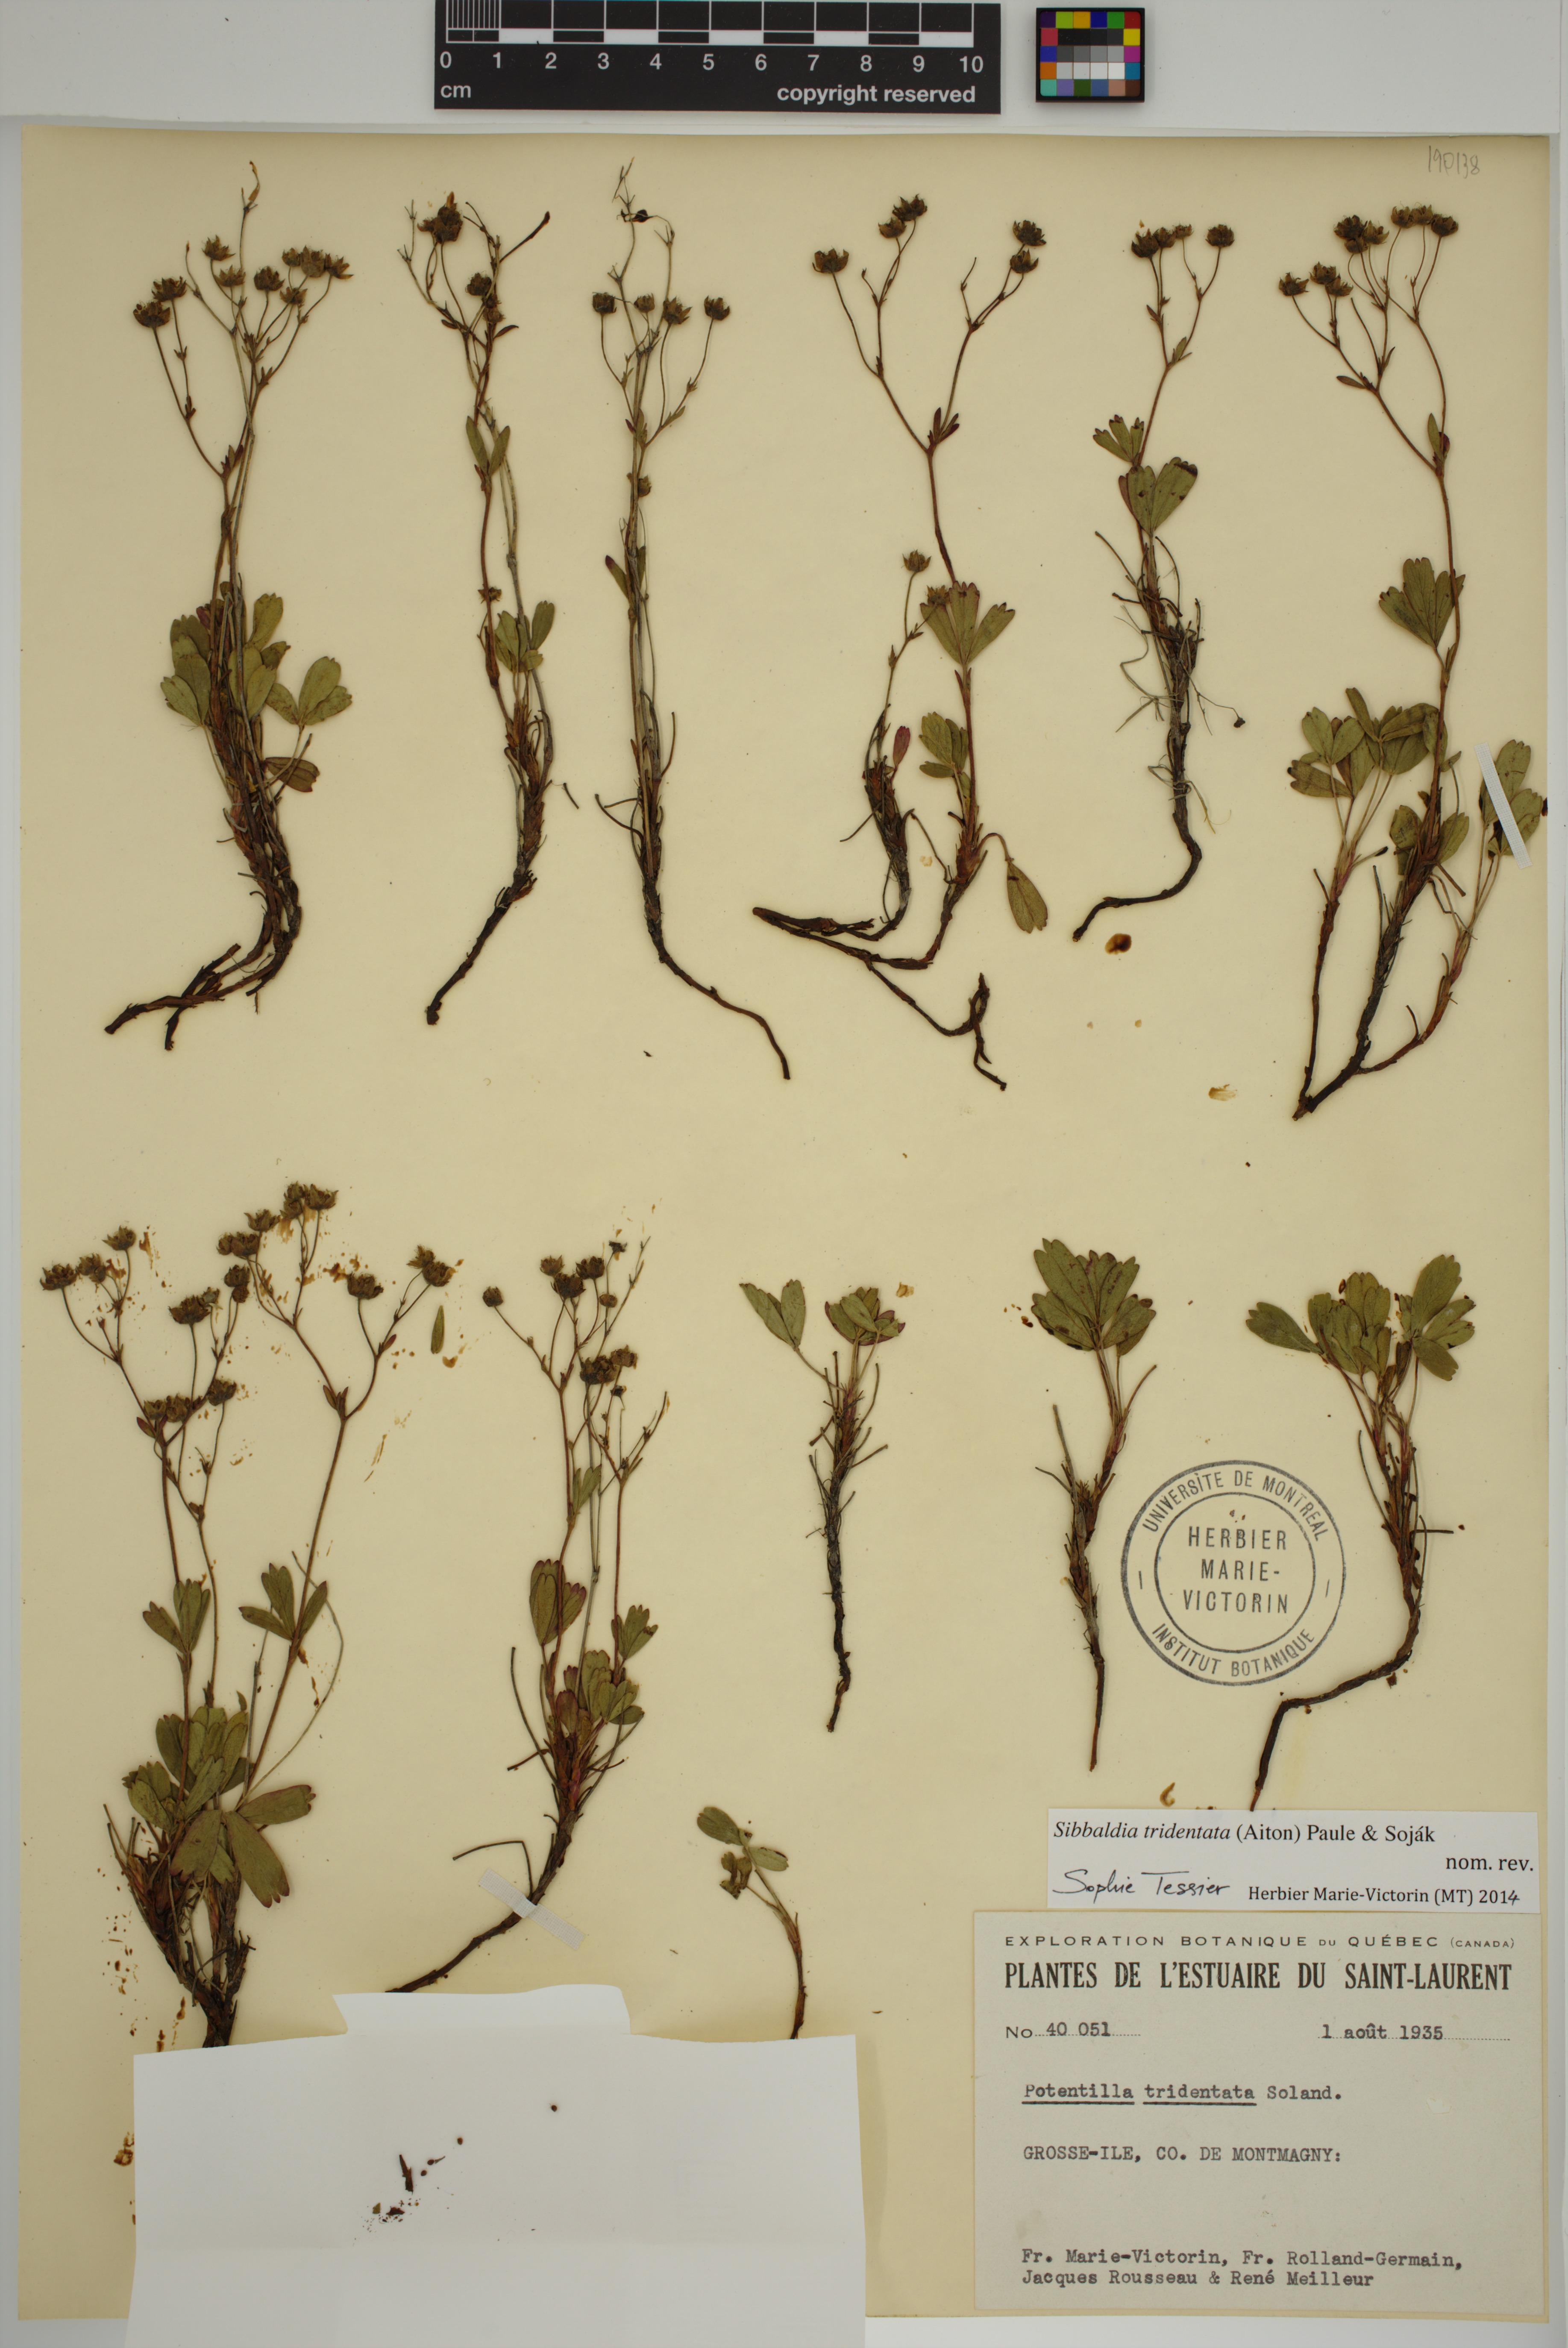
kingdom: Plantae
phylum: Tracheophyta
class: Magnoliopsida
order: Rosales
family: Rosaceae
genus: Sibbaldia
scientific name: Sibbaldia tridentata
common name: Three-toothed cinquefoil
